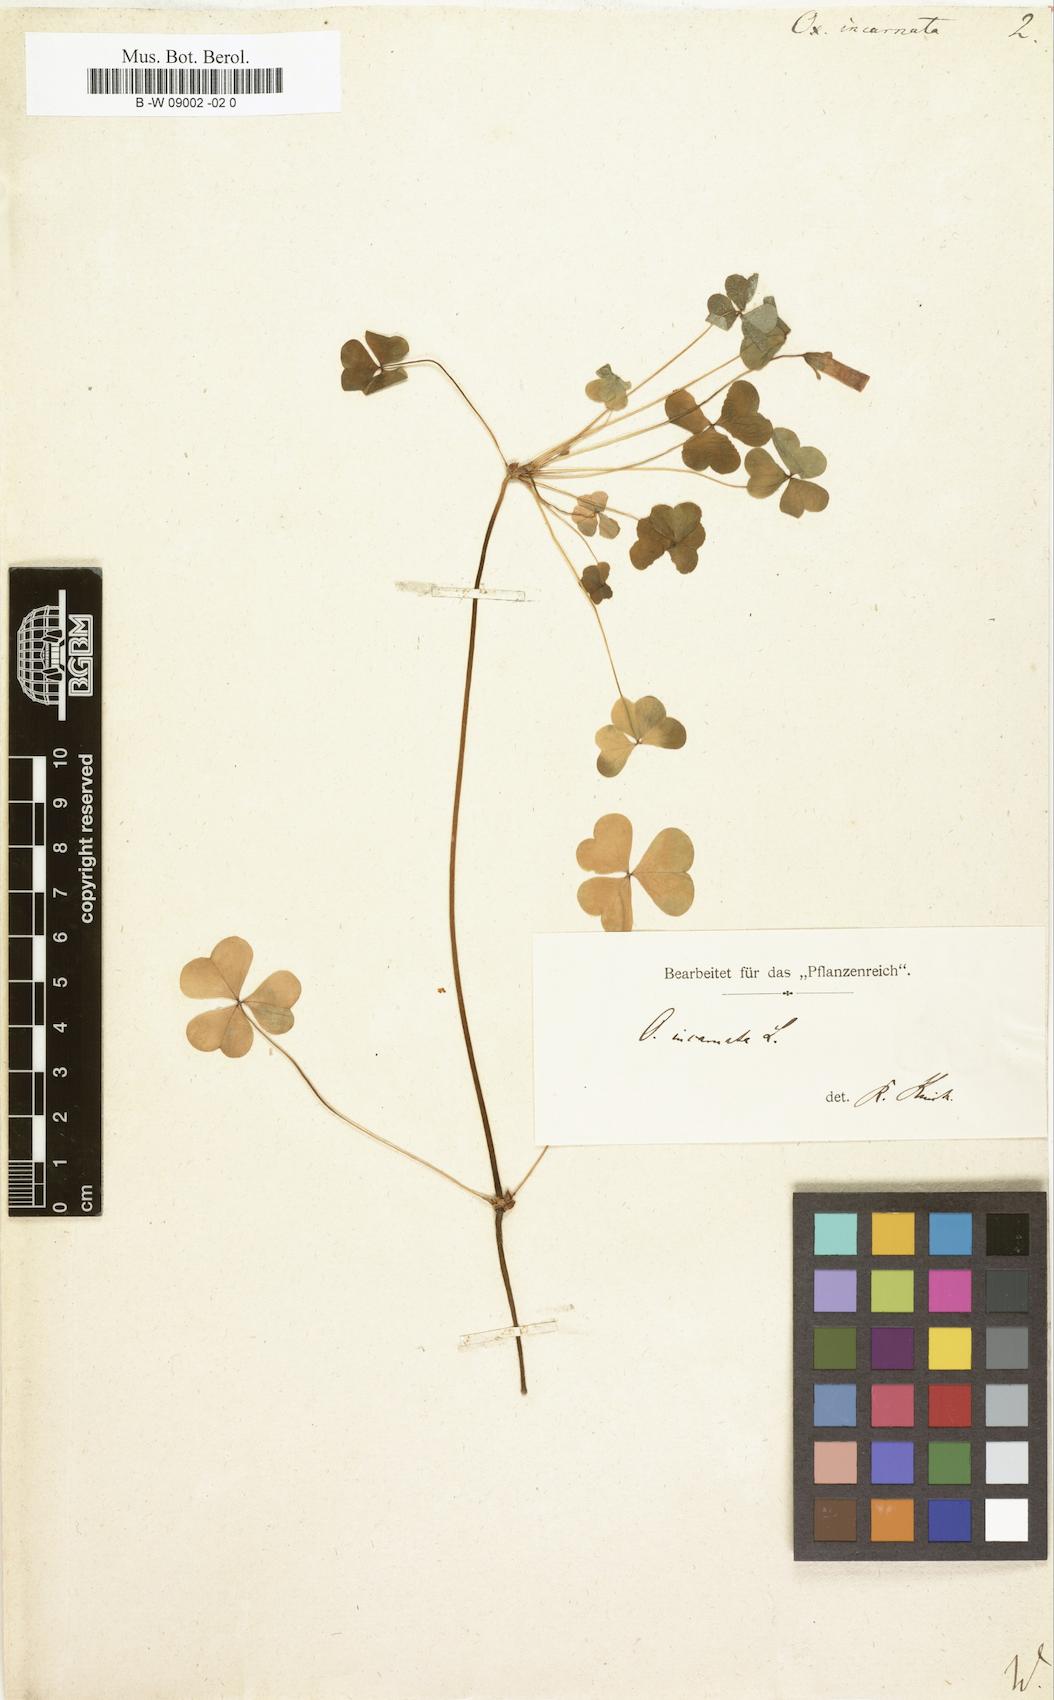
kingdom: Plantae
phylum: Tracheophyta
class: Magnoliopsida
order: Oxalidales
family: Oxalidaceae
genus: Oxalis
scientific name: Oxalis incarnata
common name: Pale pink-sorrel
